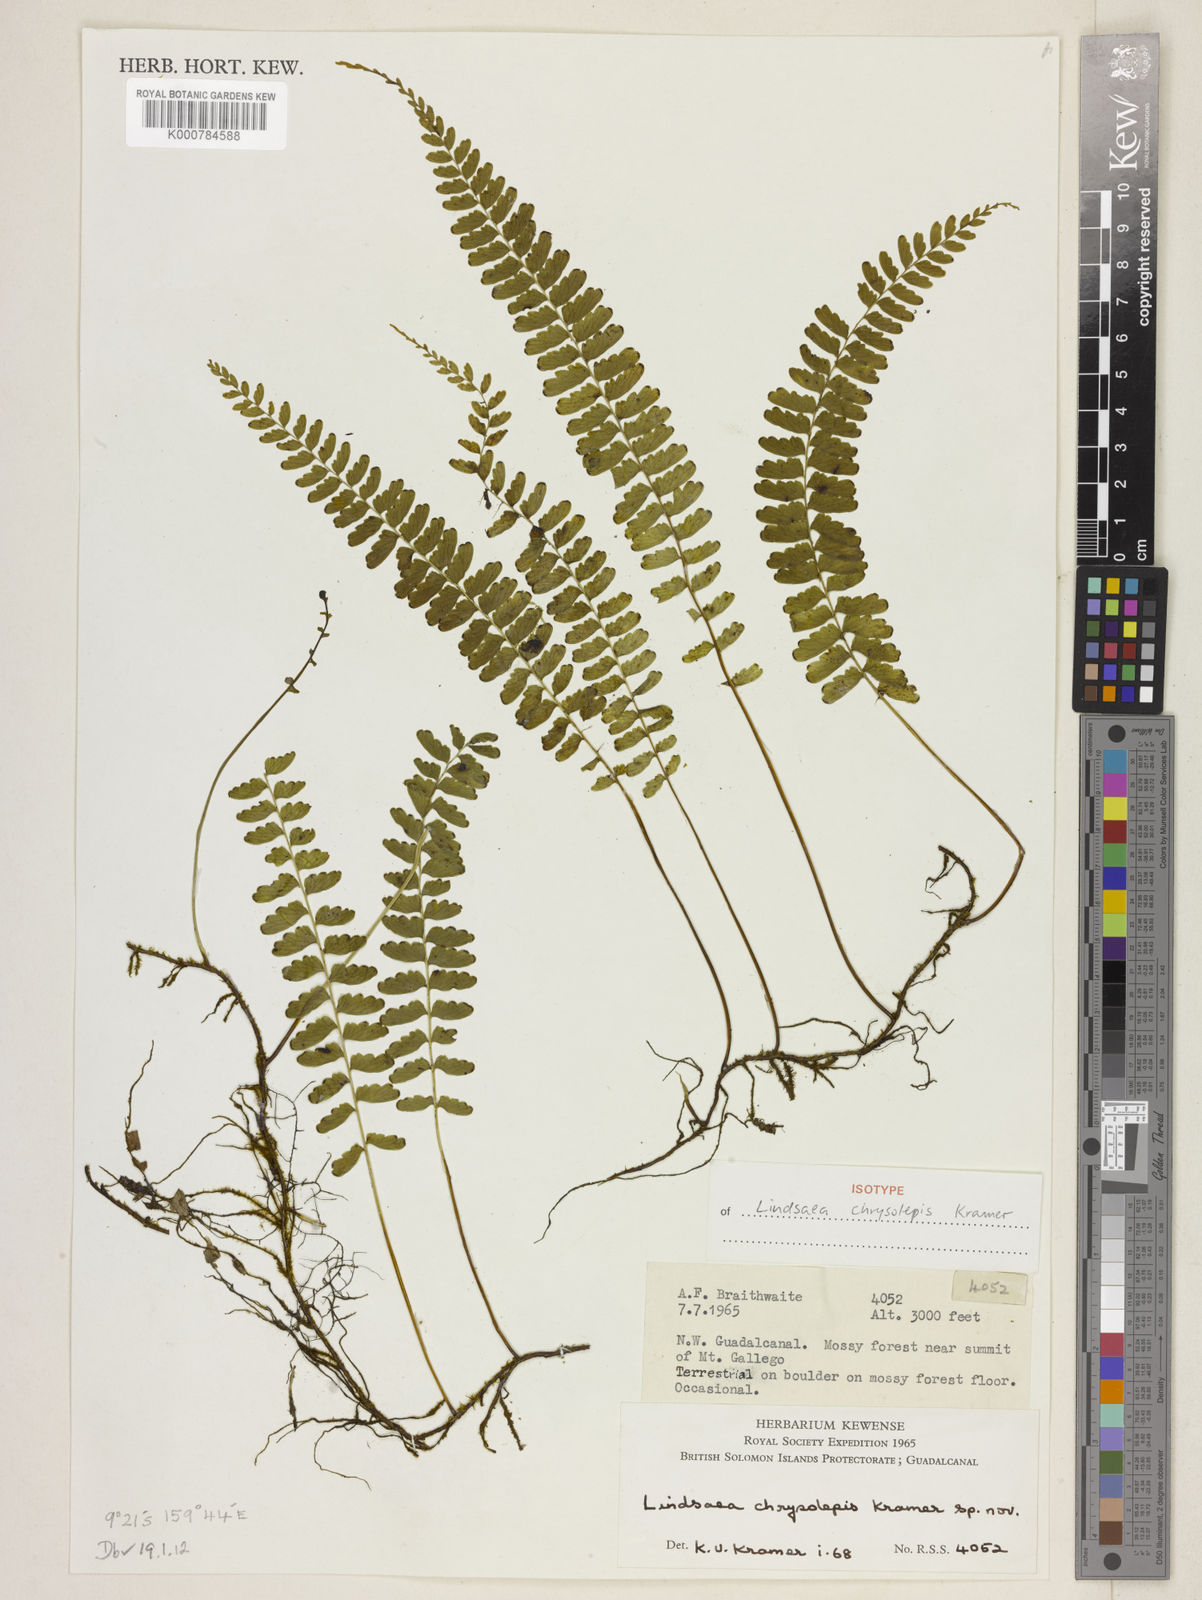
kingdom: Plantae
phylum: Tracheophyta
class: Polypodiopsida
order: Polypodiales
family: Lindsaeaceae
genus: Lindsaea
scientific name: Lindsaea chrysolepis
